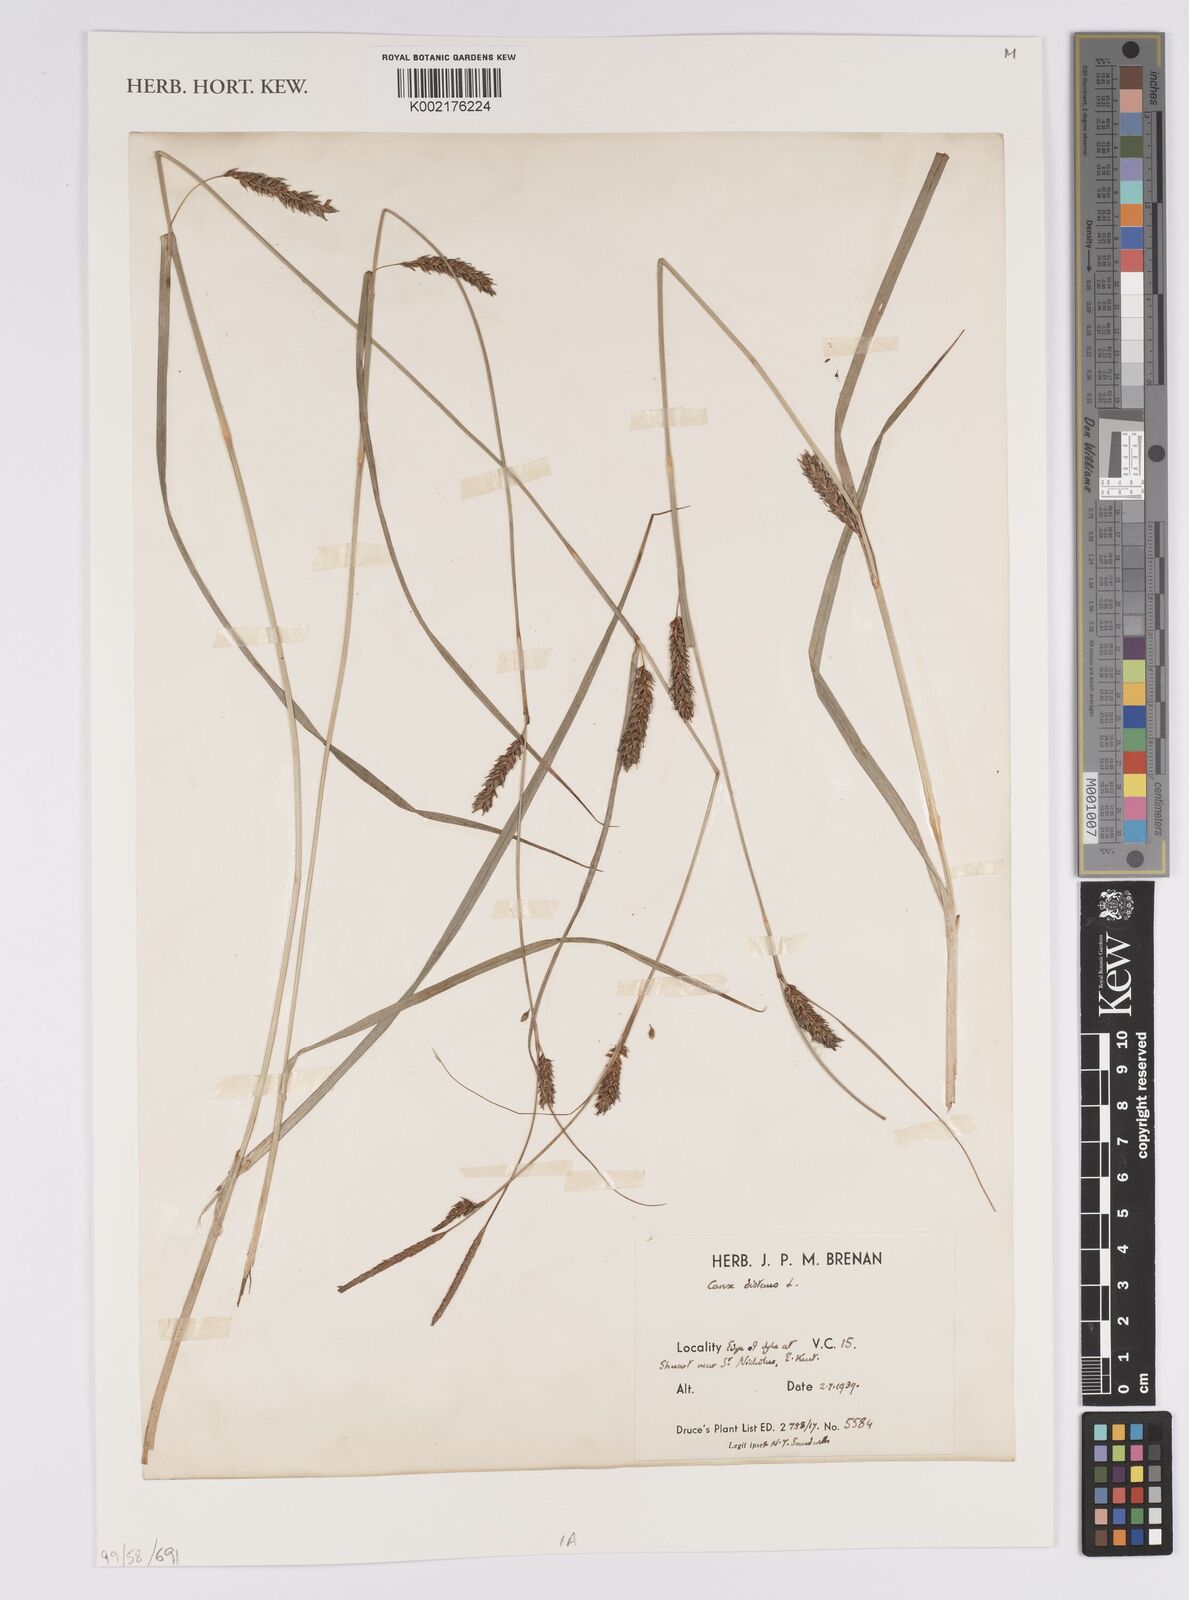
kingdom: Plantae
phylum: Tracheophyta
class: Liliopsida
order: Poales
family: Cyperaceae
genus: Carex
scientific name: Carex distans
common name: Distant sedge
